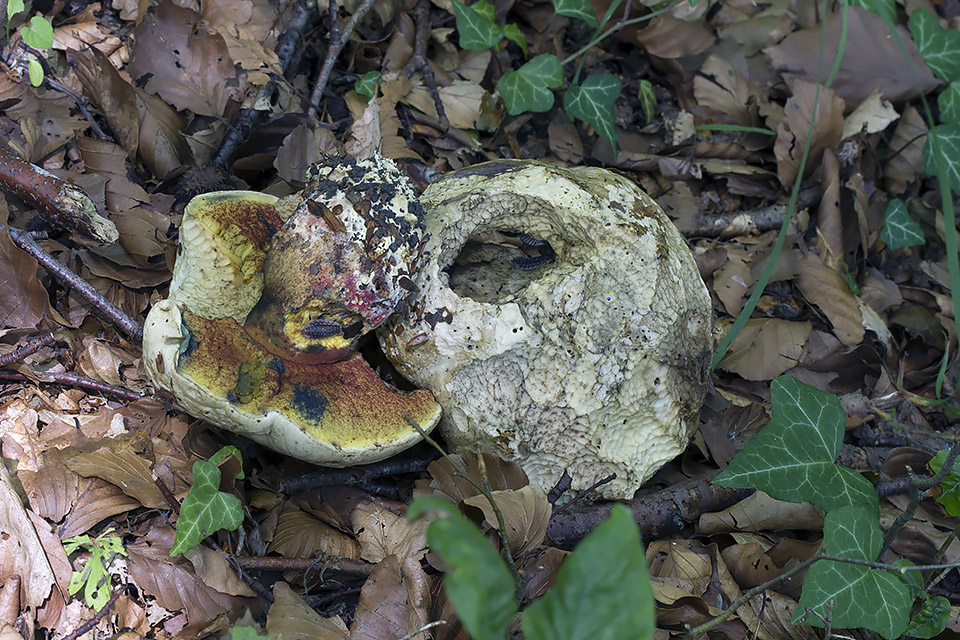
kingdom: Fungi
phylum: Basidiomycota
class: Agaricomycetes
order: Boletales
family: Boletaceae
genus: Rubroboletus
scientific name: Rubroboletus satanas
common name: Satans rørhat
